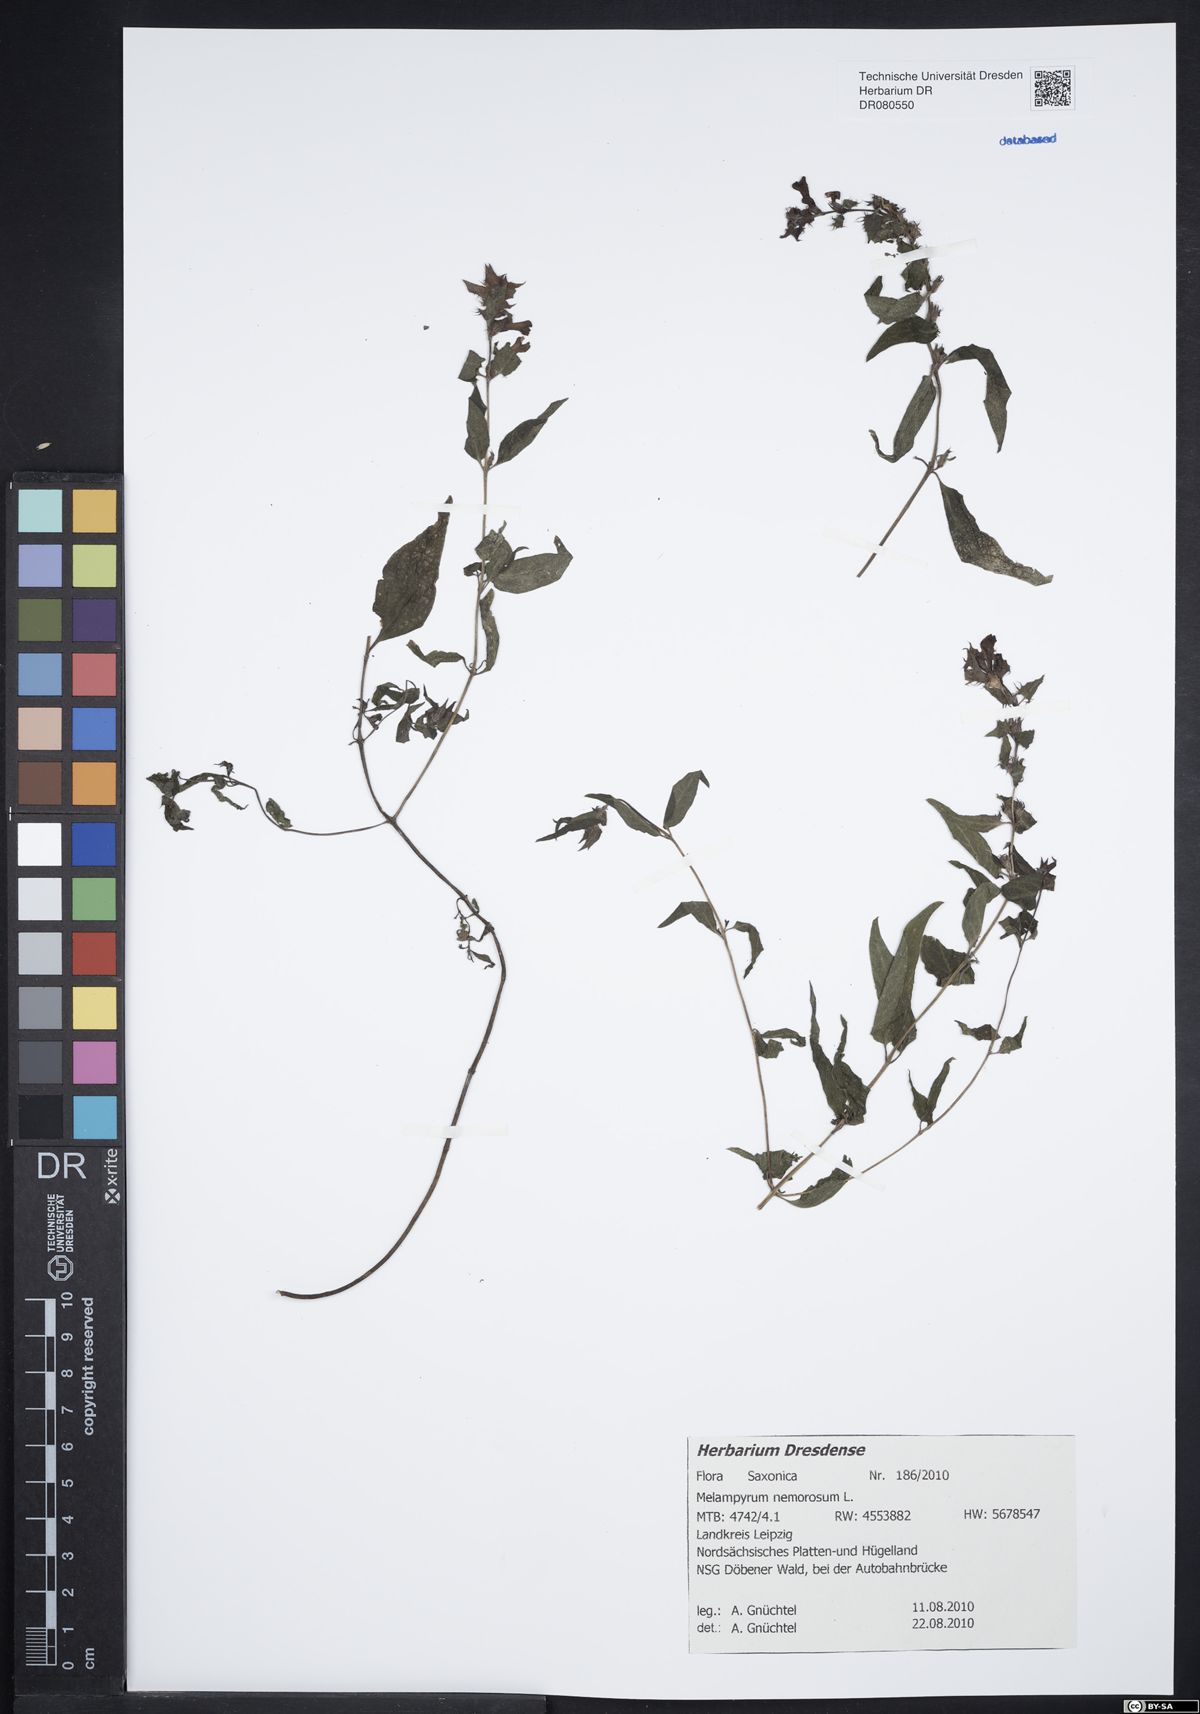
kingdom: Plantae
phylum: Tracheophyta
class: Magnoliopsida
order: Lamiales
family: Orobanchaceae
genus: Melampyrum
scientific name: Melampyrum nemorosum
